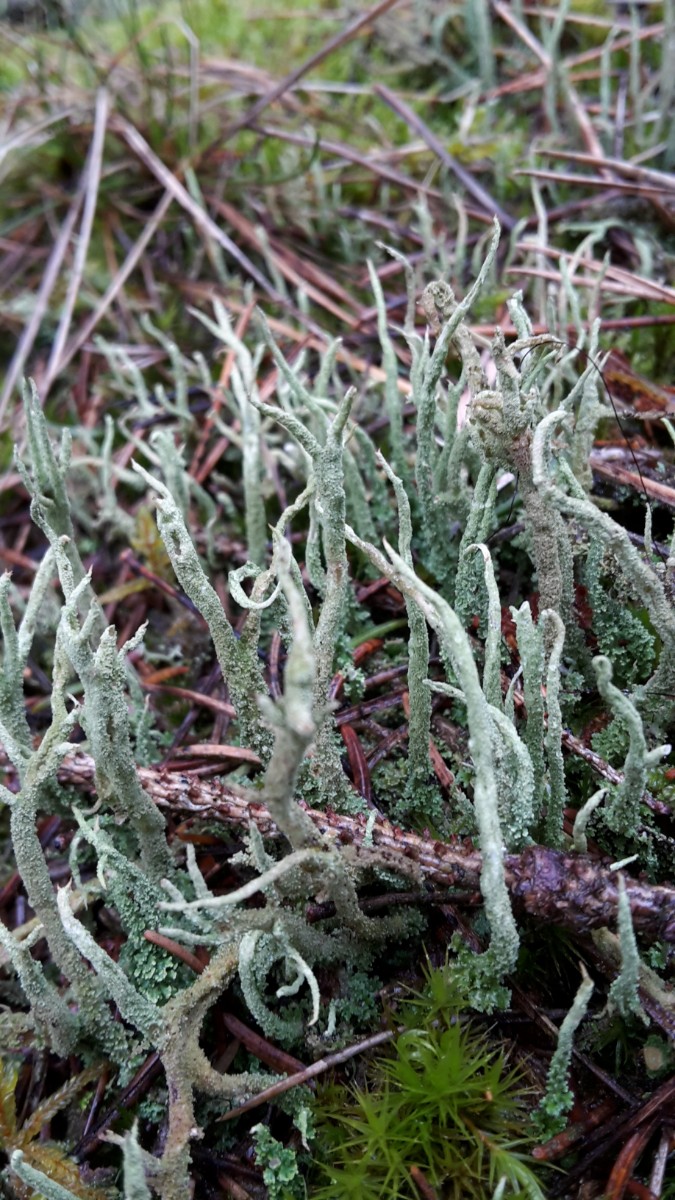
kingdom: Fungi
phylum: Ascomycota
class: Lecanoromycetes
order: Lecanorales
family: Cladoniaceae
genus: Cladonia
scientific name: Cladonia glauca
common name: grågrøn bægerlav
